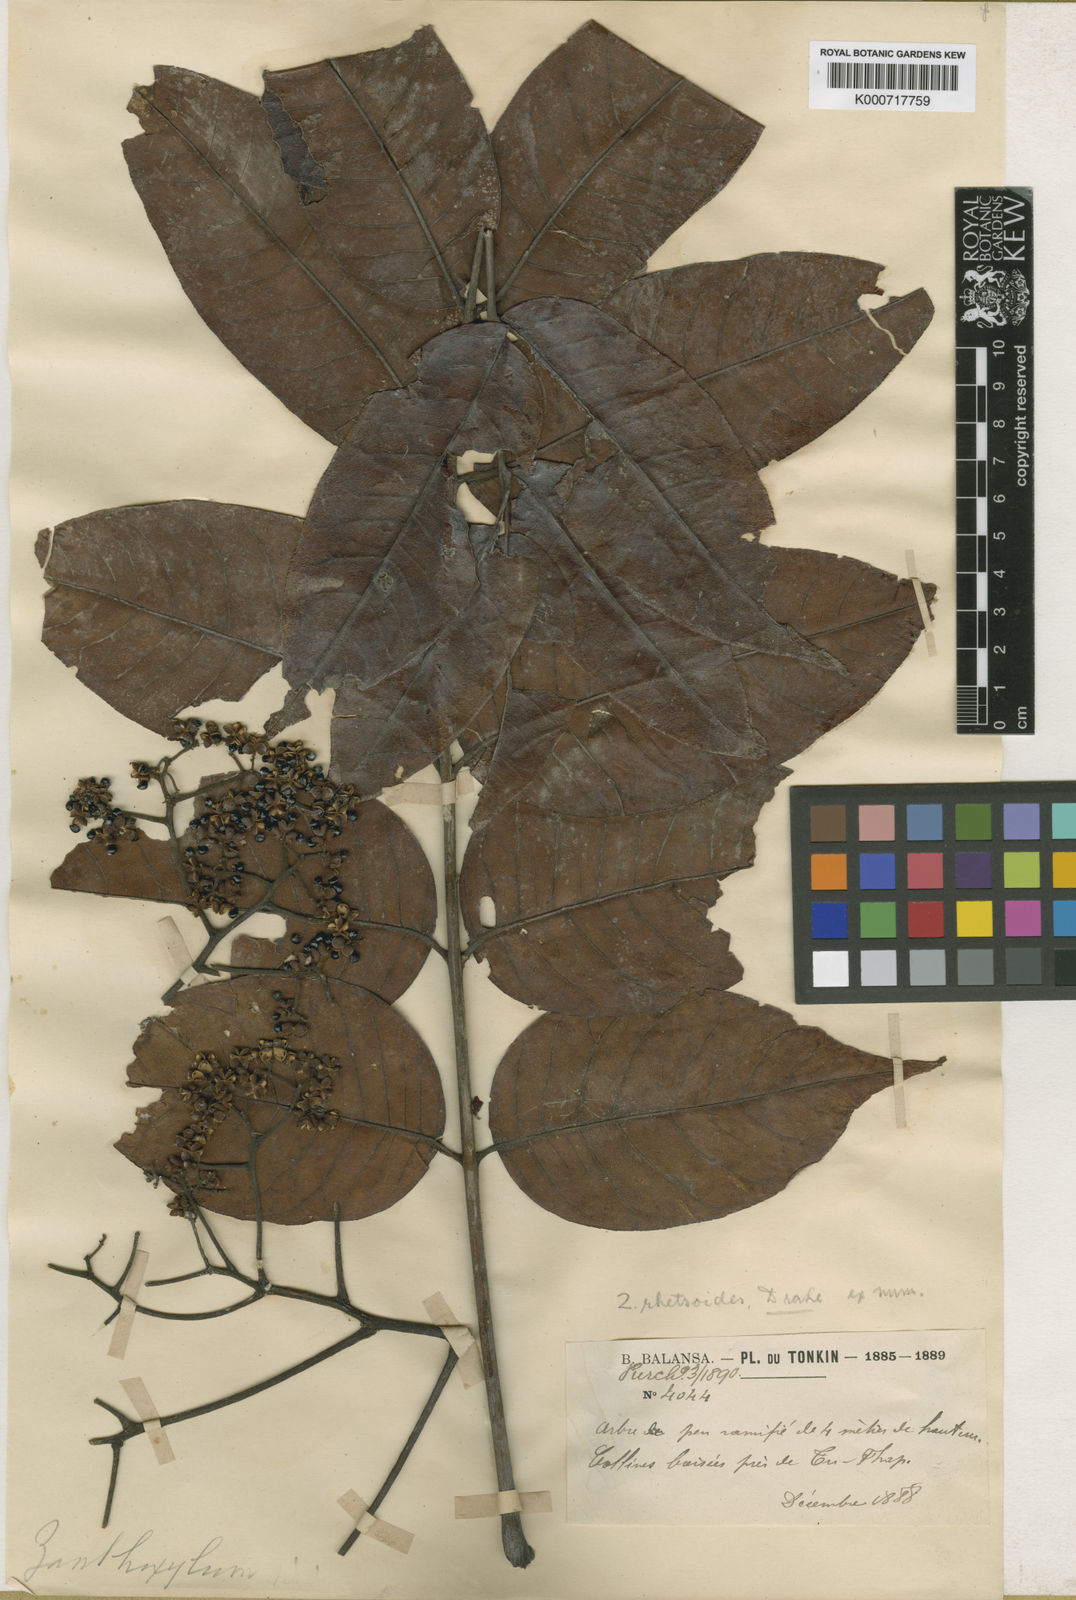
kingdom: Plantae
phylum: Tracheophyta
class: Magnoliopsida
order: Sapindales
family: Rutaceae
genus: Zanthoxylum
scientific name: Zanthoxylum myriacanthum
